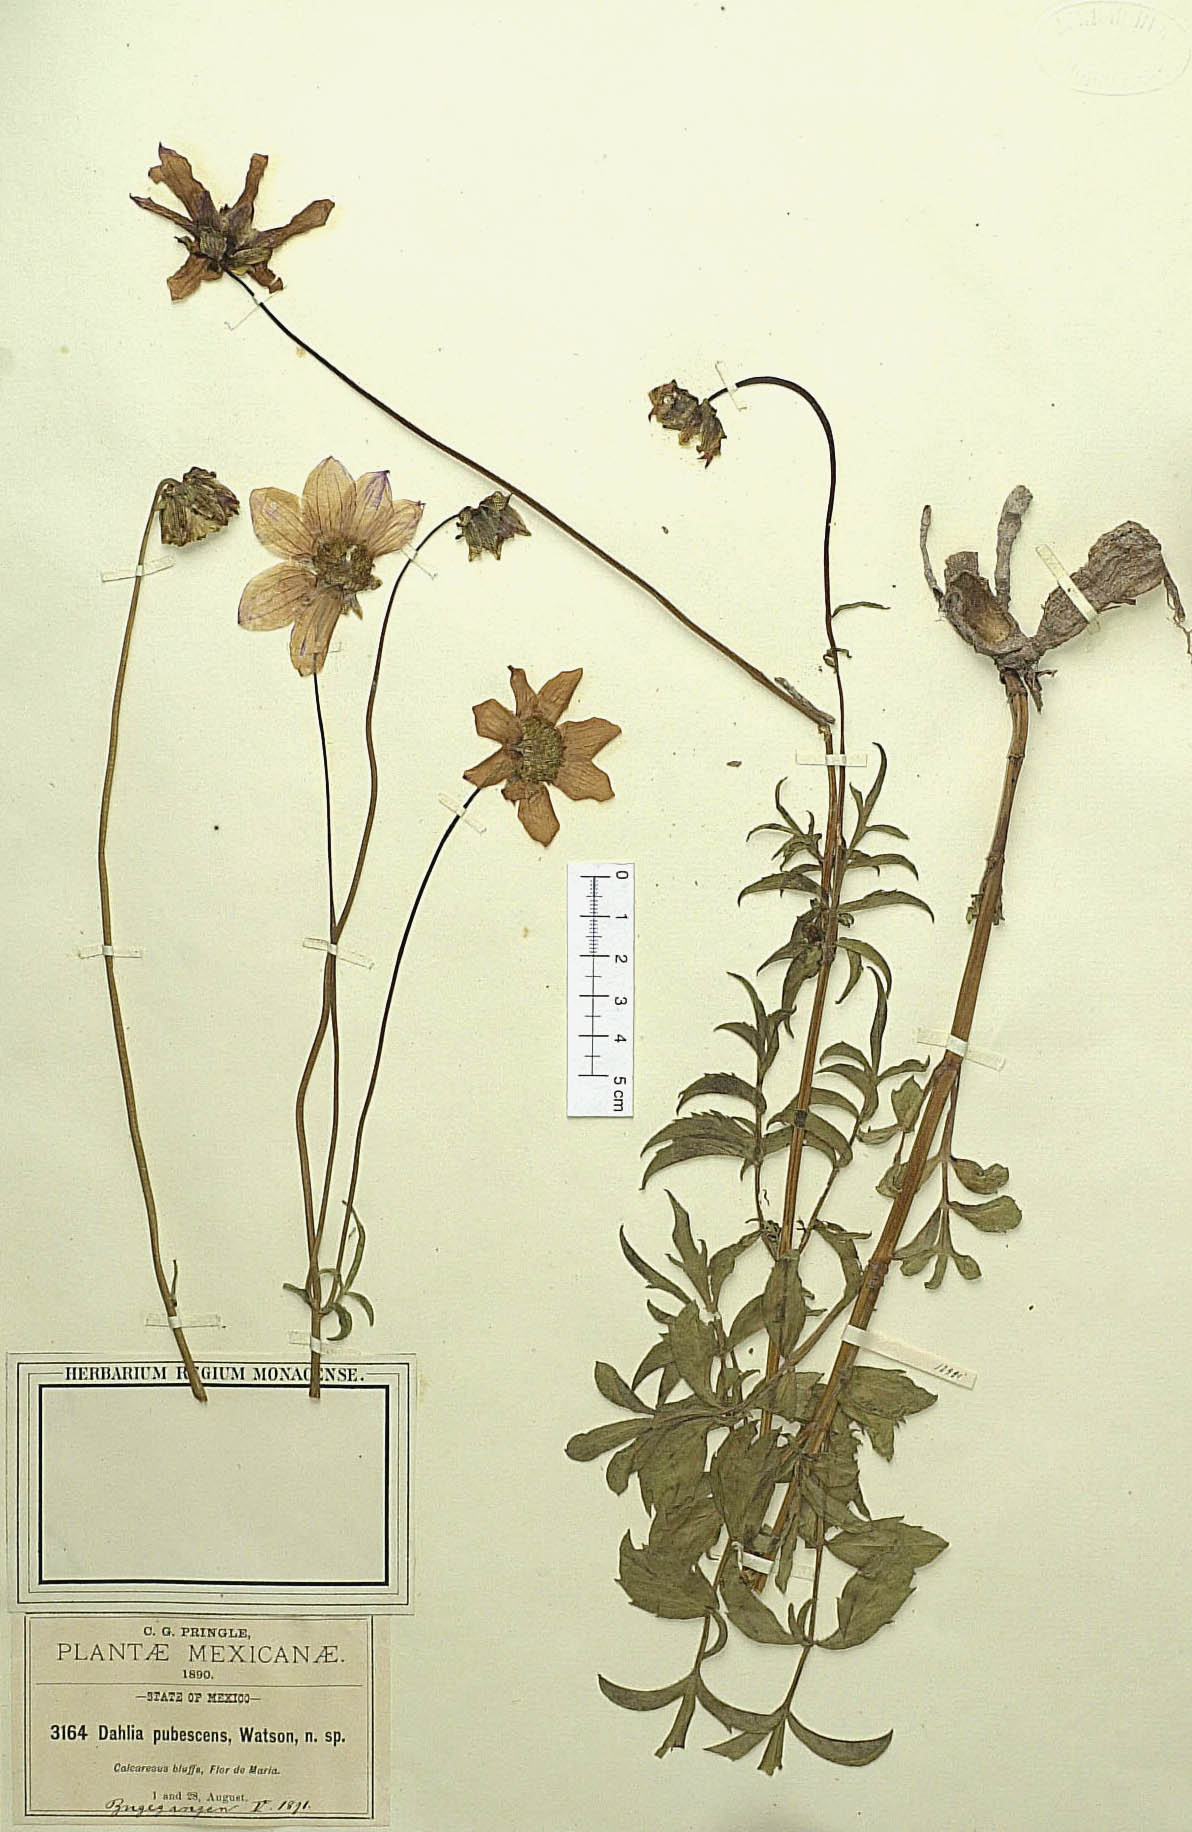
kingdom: Plantae
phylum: Tracheophyta
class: Magnoliopsida
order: Asterales
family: Asteraceae
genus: Dahlia
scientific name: Dahlia brevis
